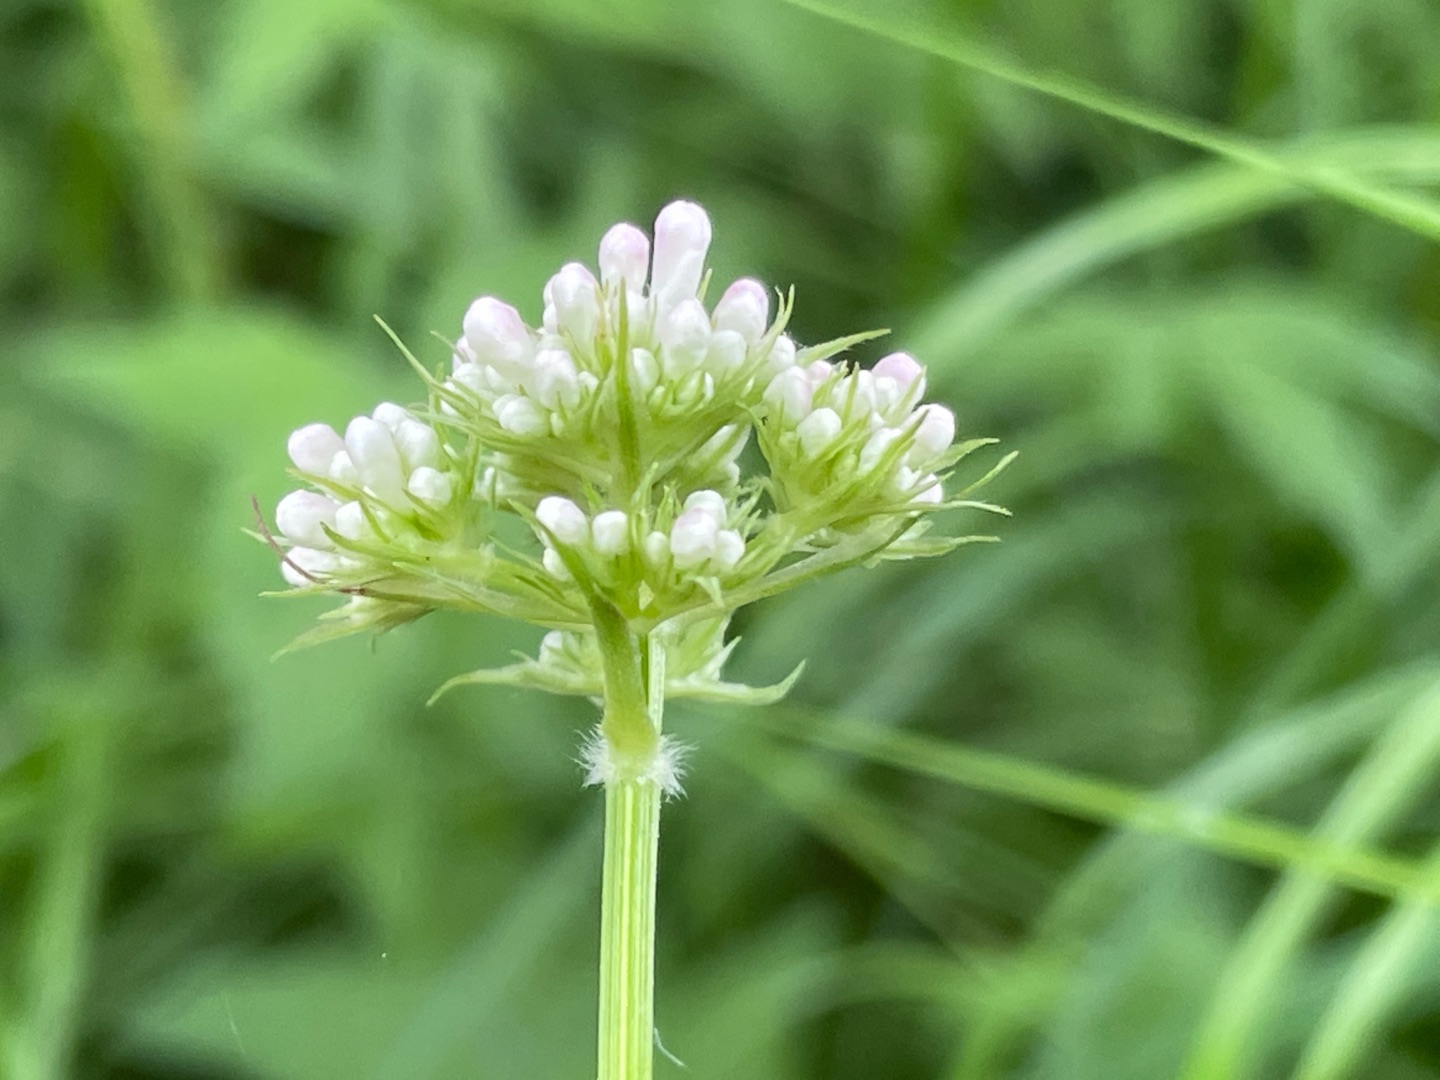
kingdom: Plantae
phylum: Tracheophyta
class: Magnoliopsida
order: Dipsacales
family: Caprifoliaceae
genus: Valeriana
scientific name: Valeriana dioica
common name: Tvebo baldrian
